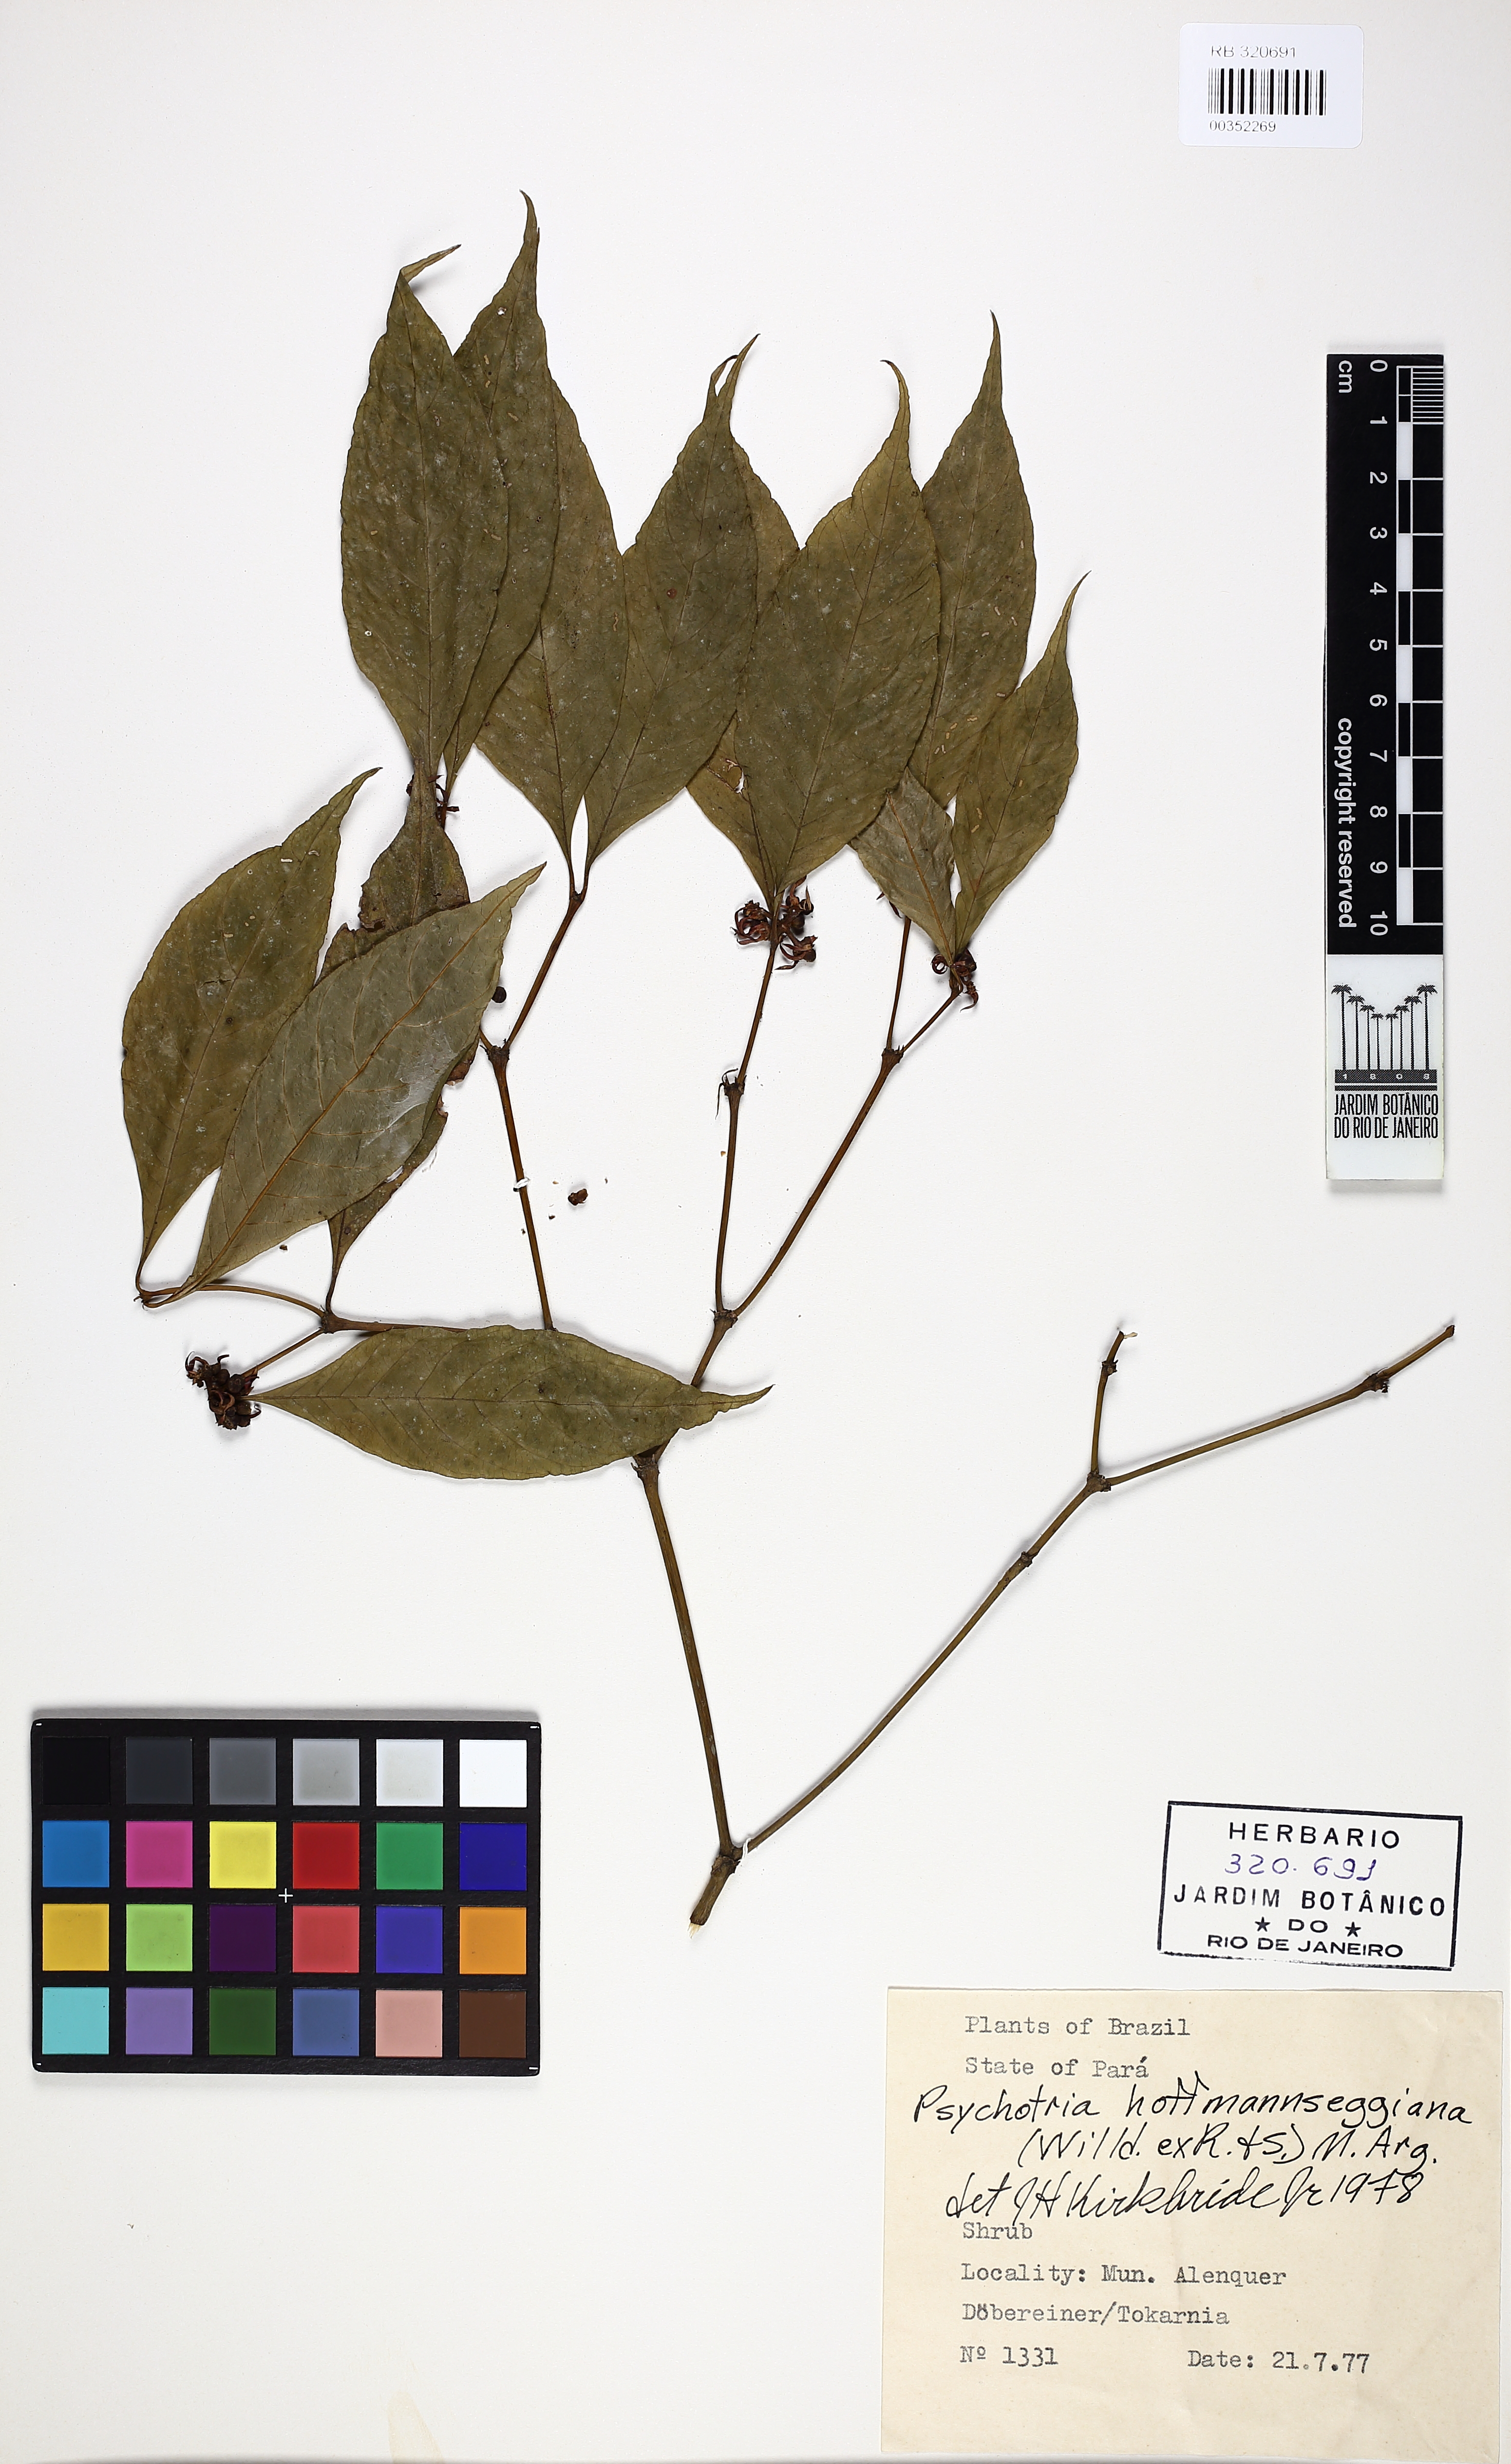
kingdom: Plantae
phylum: Tracheophyta
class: Magnoliopsida
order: Gentianales
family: Rubiaceae
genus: Palicourea
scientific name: Palicourea hoffmannseggiana
